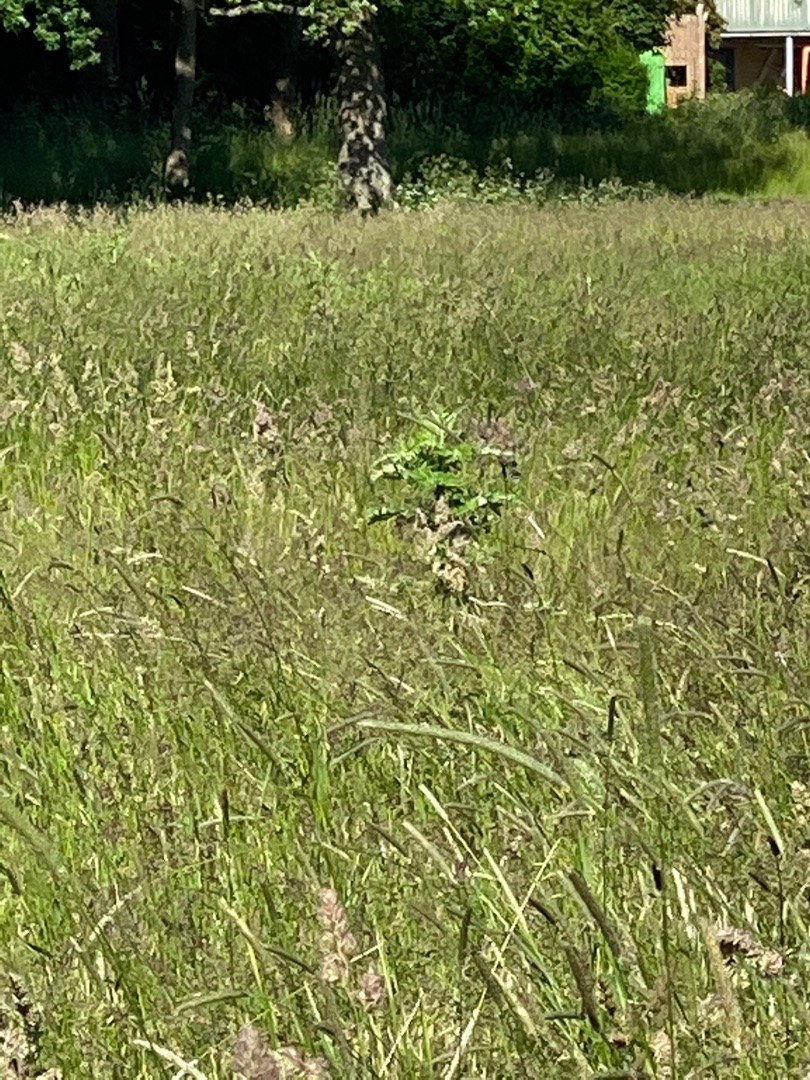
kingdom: Plantae
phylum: Tracheophyta
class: Magnoliopsida
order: Asterales
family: Asteraceae
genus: Cirsium
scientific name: Cirsium arvense
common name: Ager-tidsel
